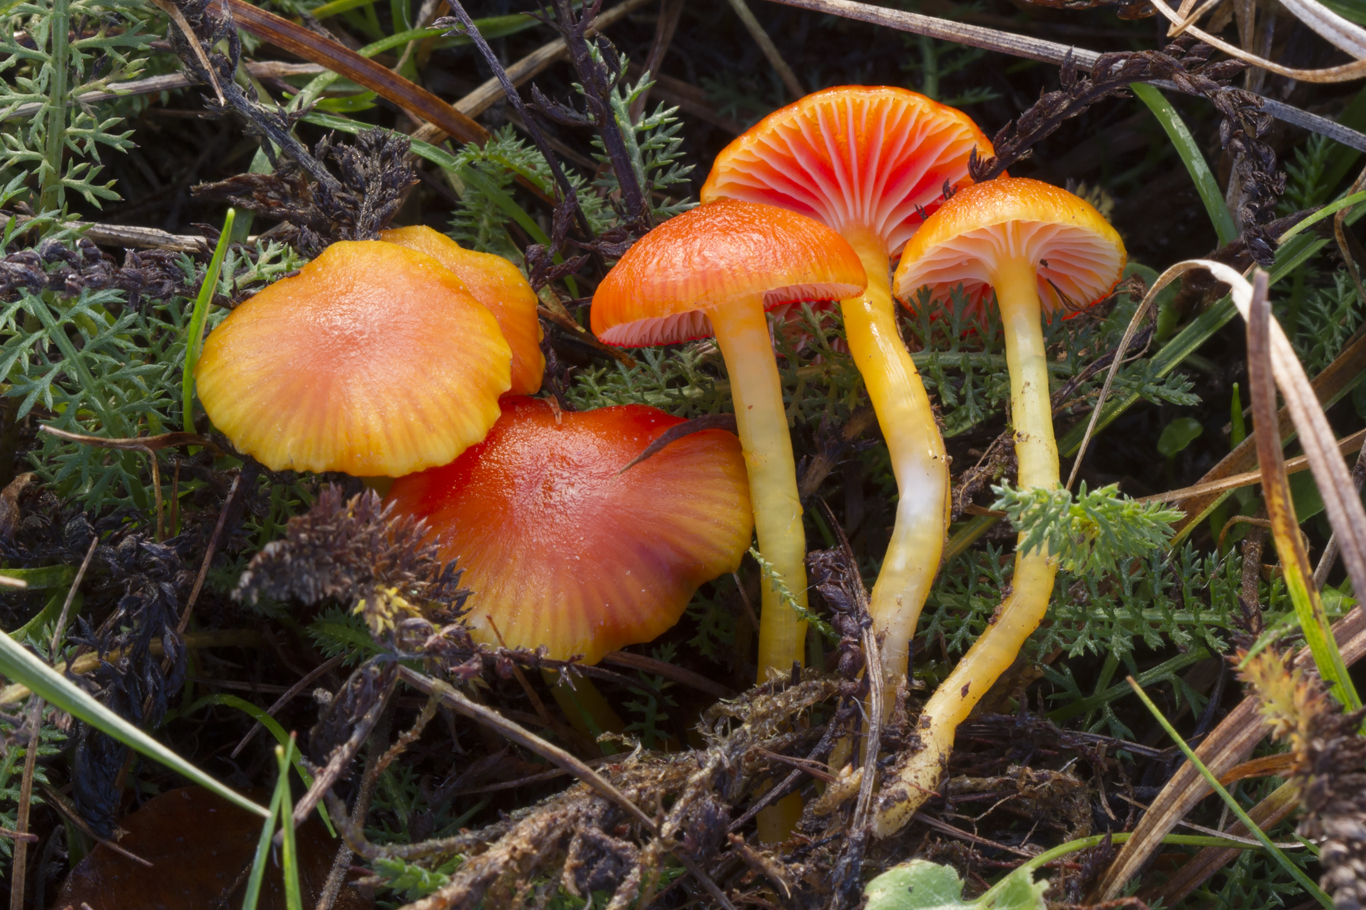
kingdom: Fungi
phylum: Basidiomycota
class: Agaricomycetes
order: Agaricales
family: Hygrophoraceae
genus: Hygrocybe
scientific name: Hygrocybe insipida
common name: liden vokshat
